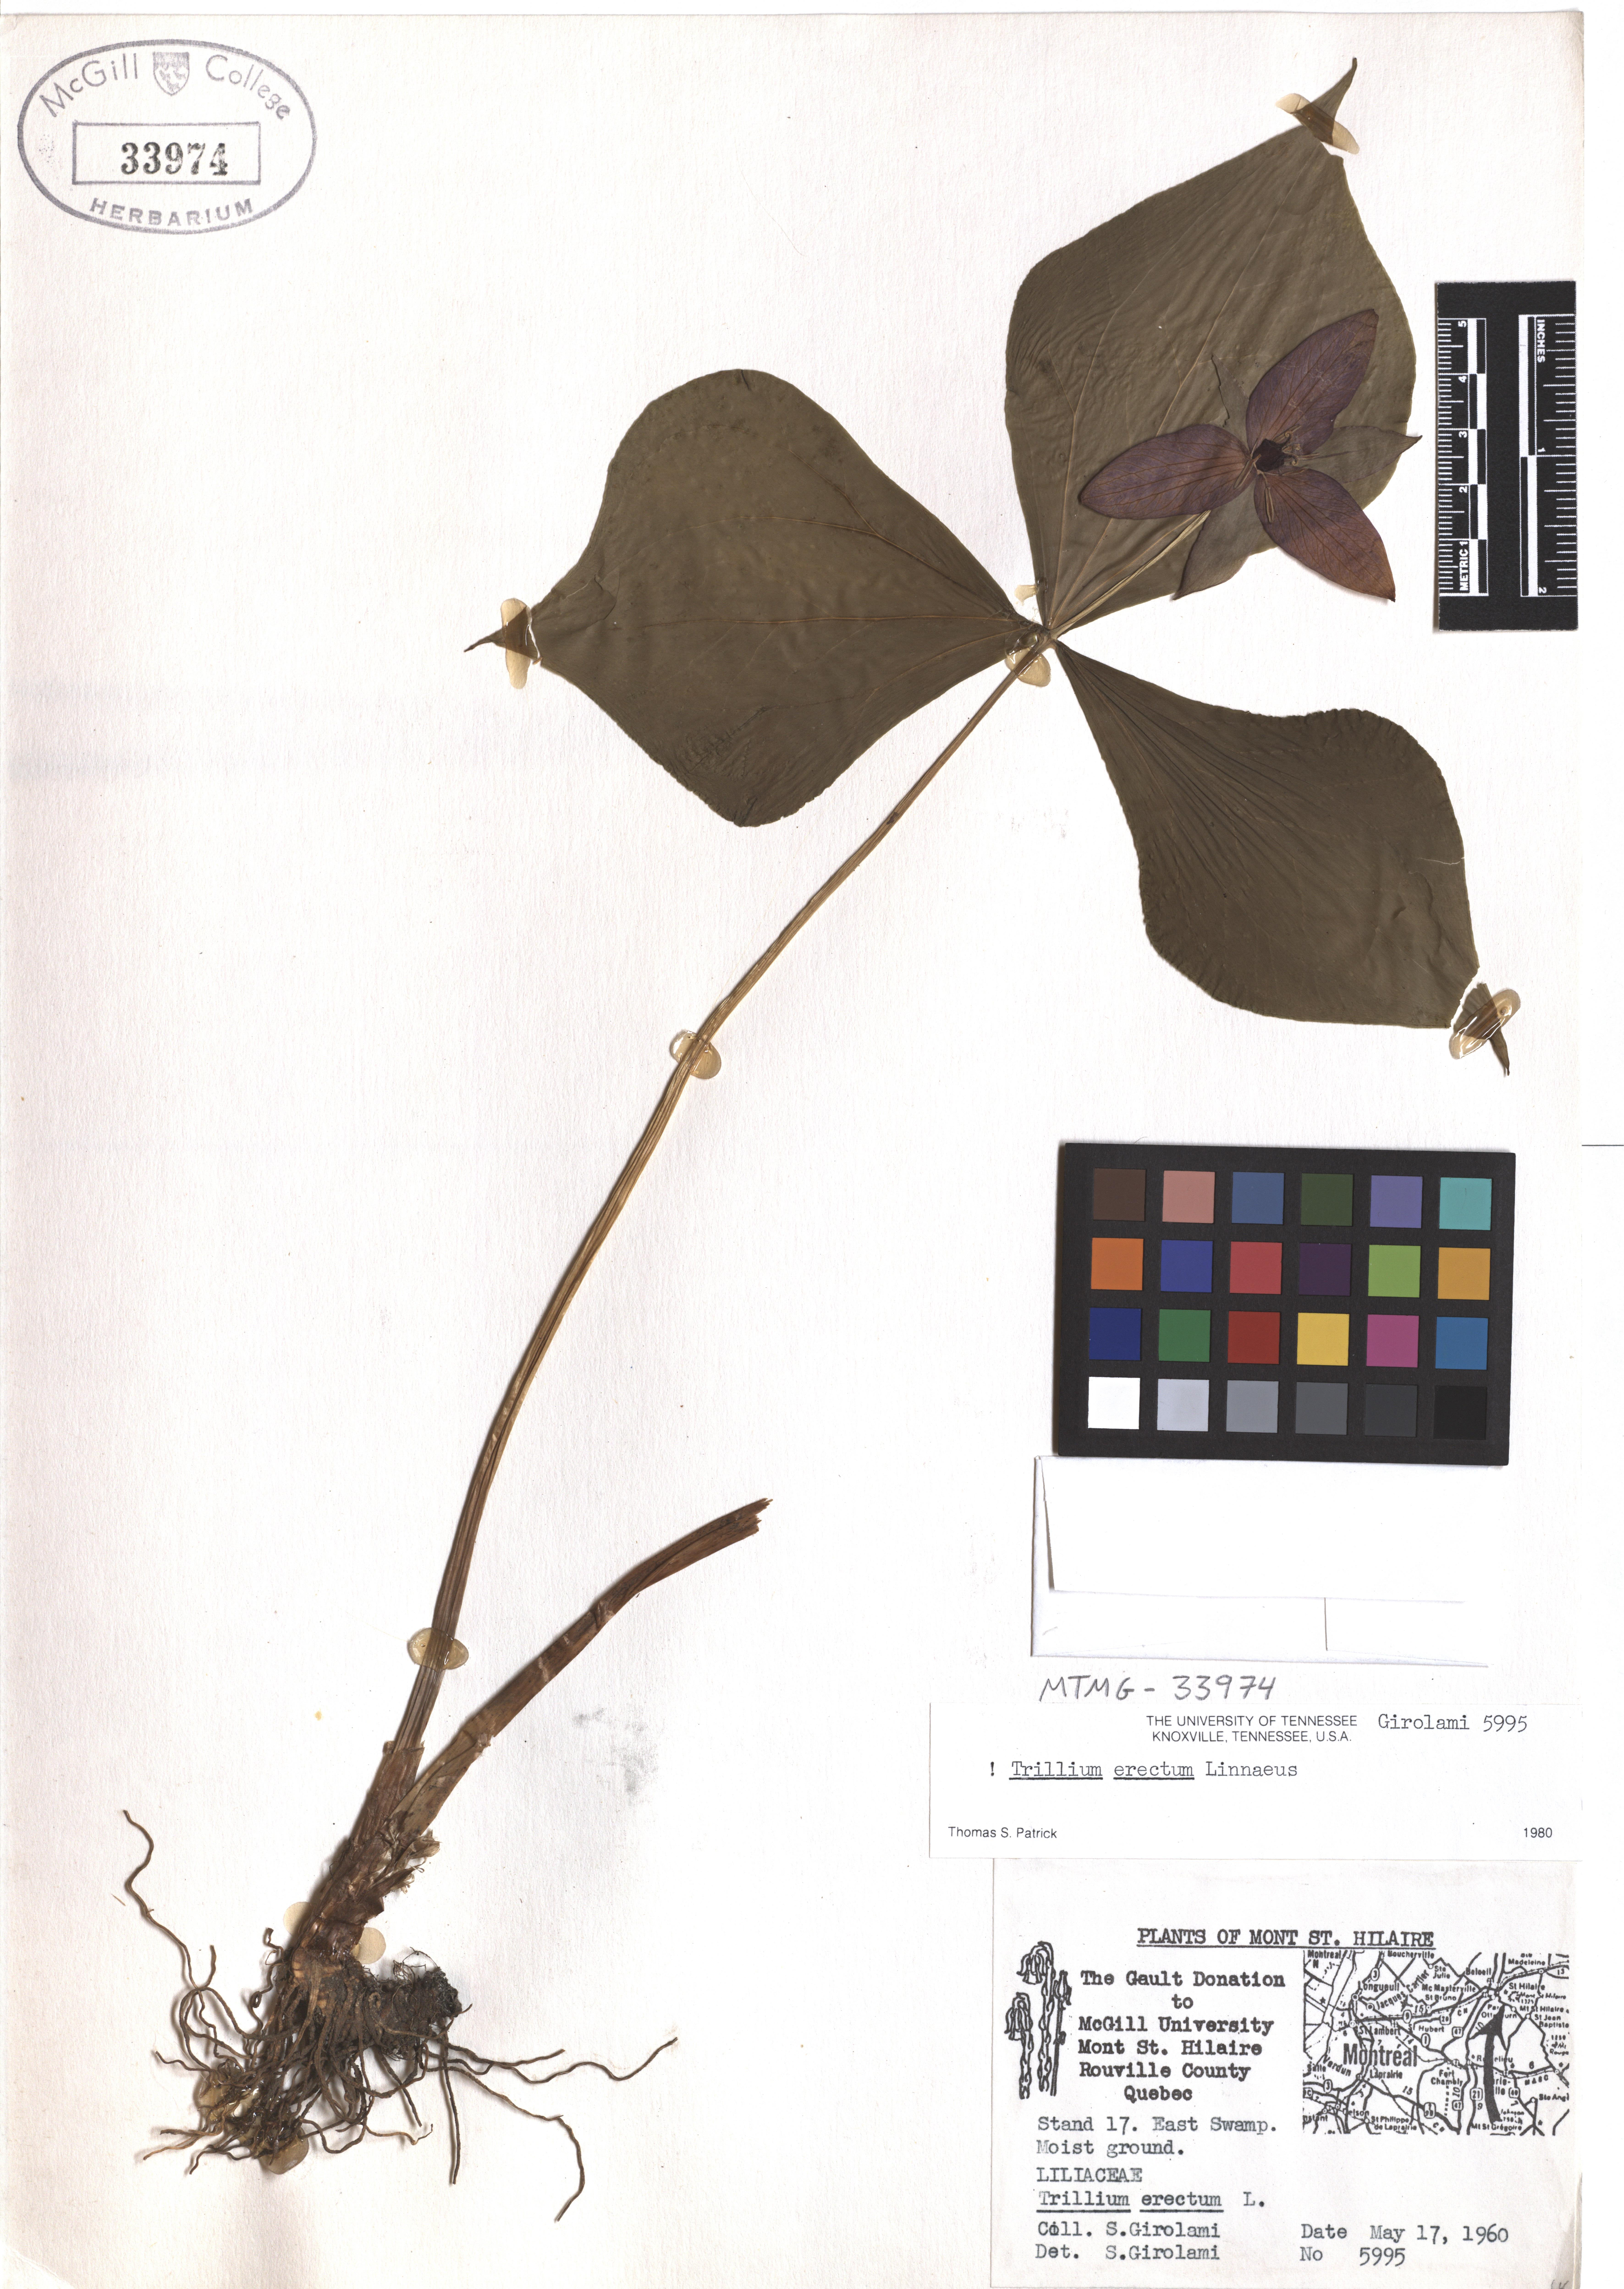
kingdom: Plantae
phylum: Tracheophyta
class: Liliopsida
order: Liliales
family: Melanthiaceae
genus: Trillium
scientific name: Trillium erectum
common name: Purple trillium
